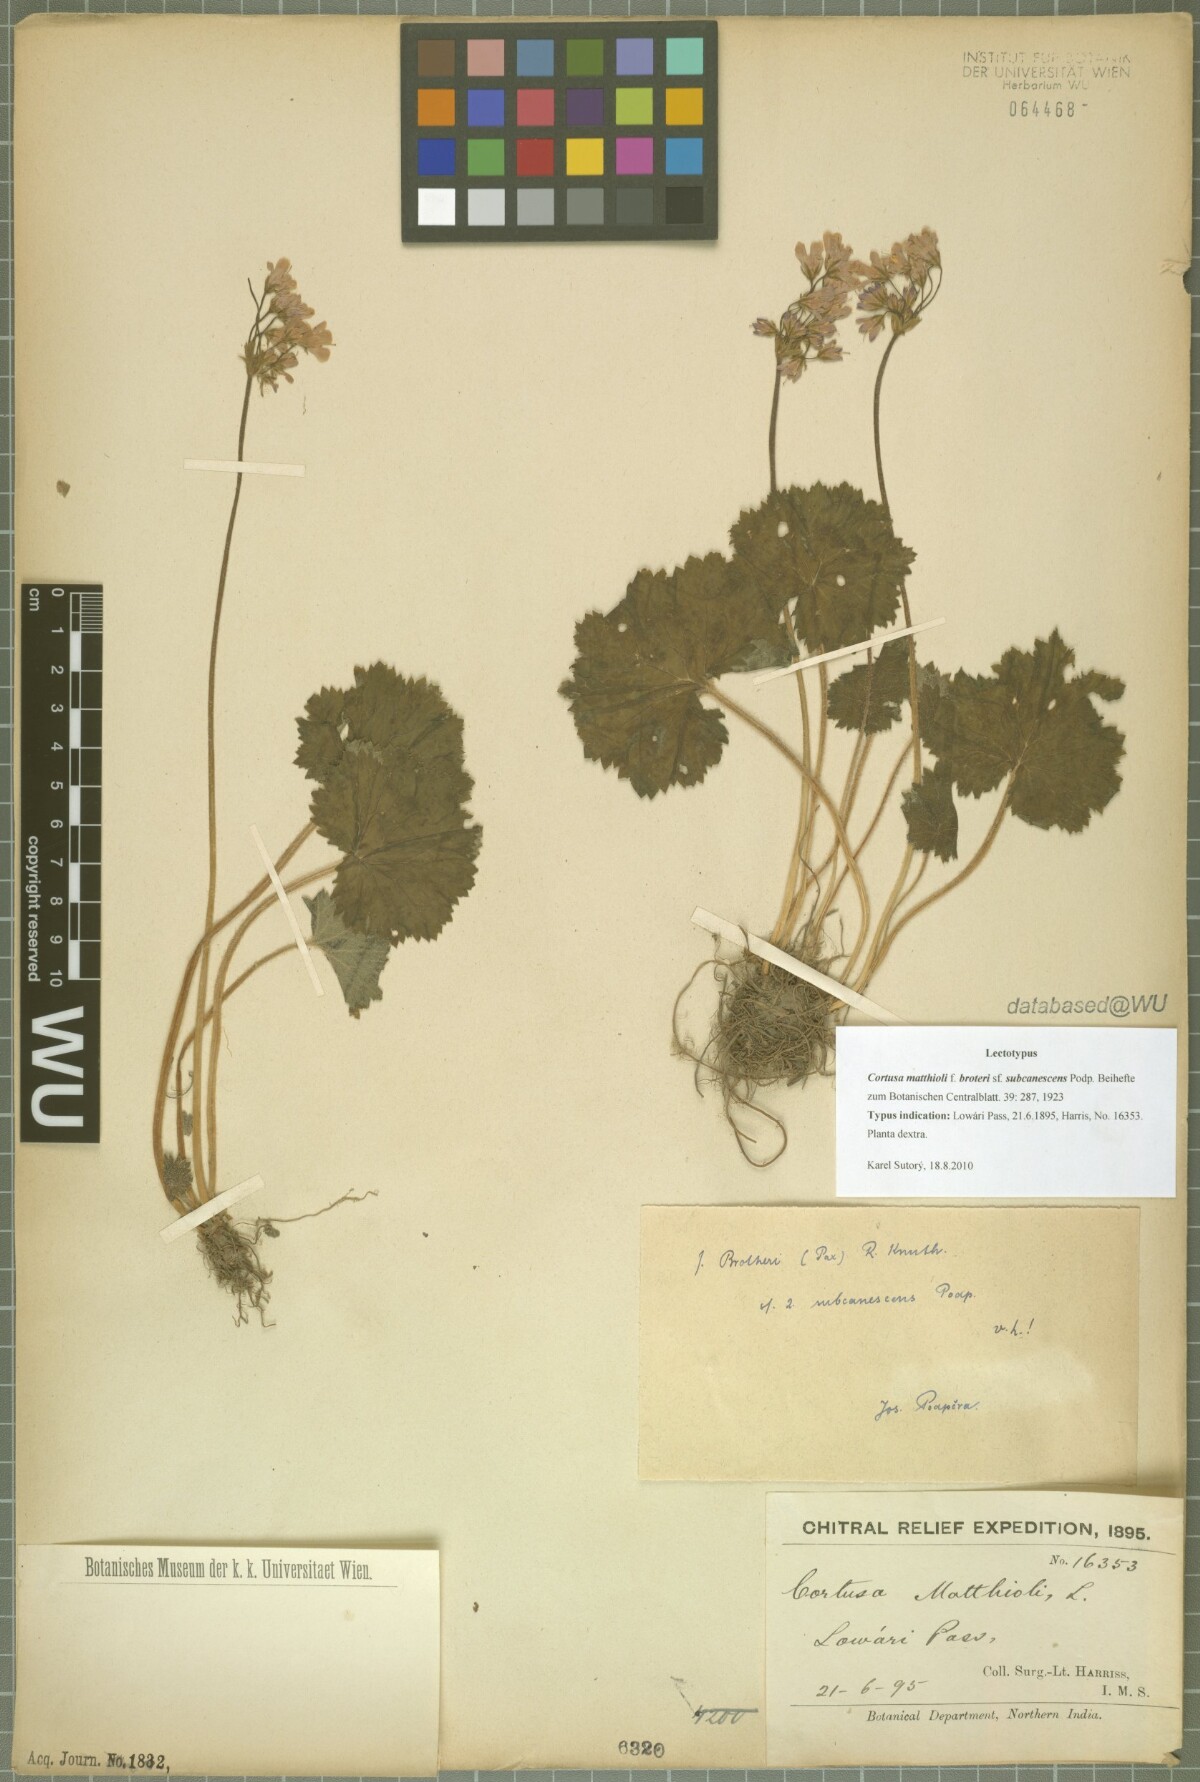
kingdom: Plantae
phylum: Tracheophyta
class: Magnoliopsida
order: Ericales
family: Primulaceae
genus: Primula
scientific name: Primula matthioli
